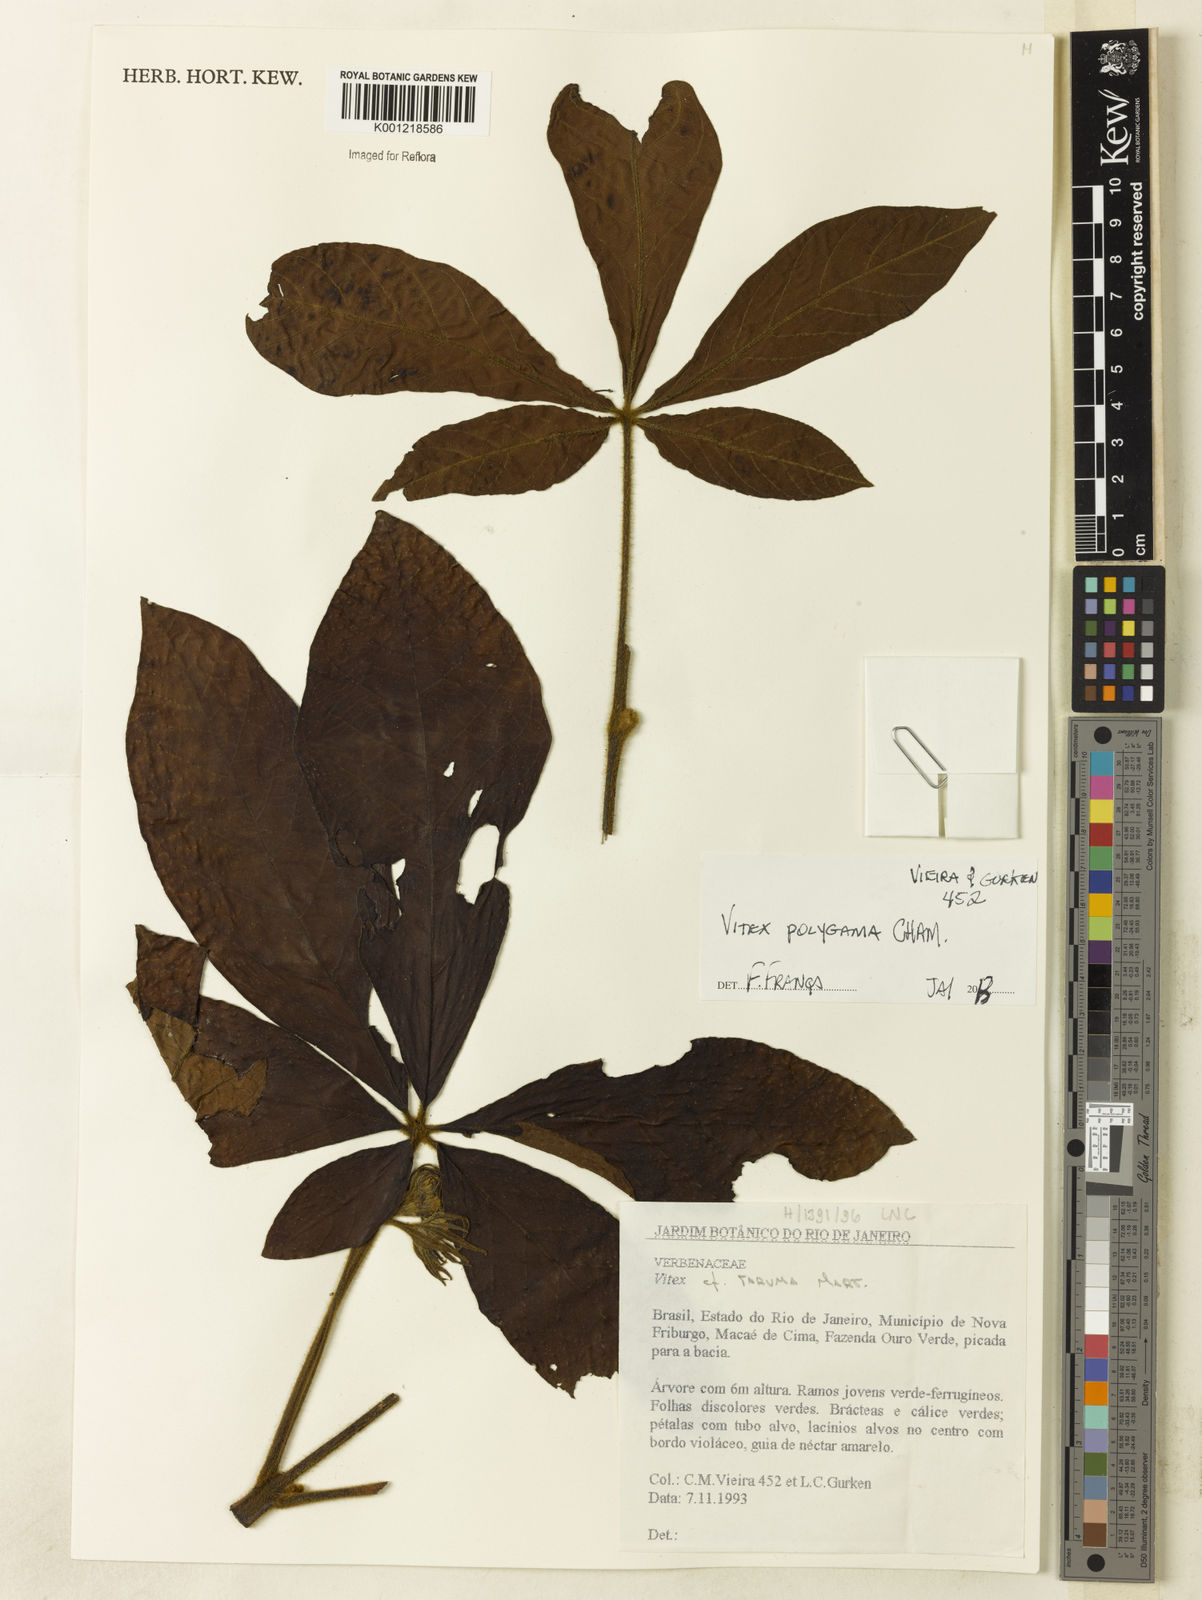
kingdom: Plantae
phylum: Tracheophyta
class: Magnoliopsida
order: Lamiales
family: Lamiaceae
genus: Vitex
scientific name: Vitex polygama
